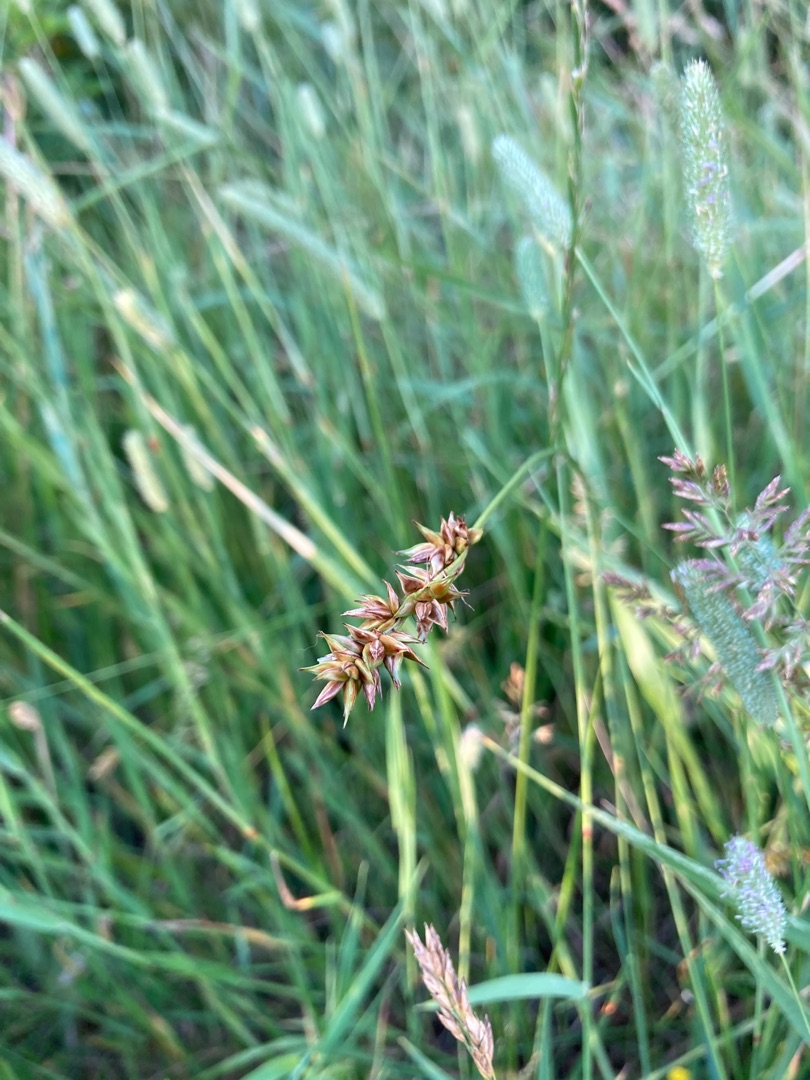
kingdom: Plantae
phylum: Tracheophyta
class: Liliopsida
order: Poales
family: Cyperaceae
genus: Carex
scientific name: Carex spicata
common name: Spidskapslet star
